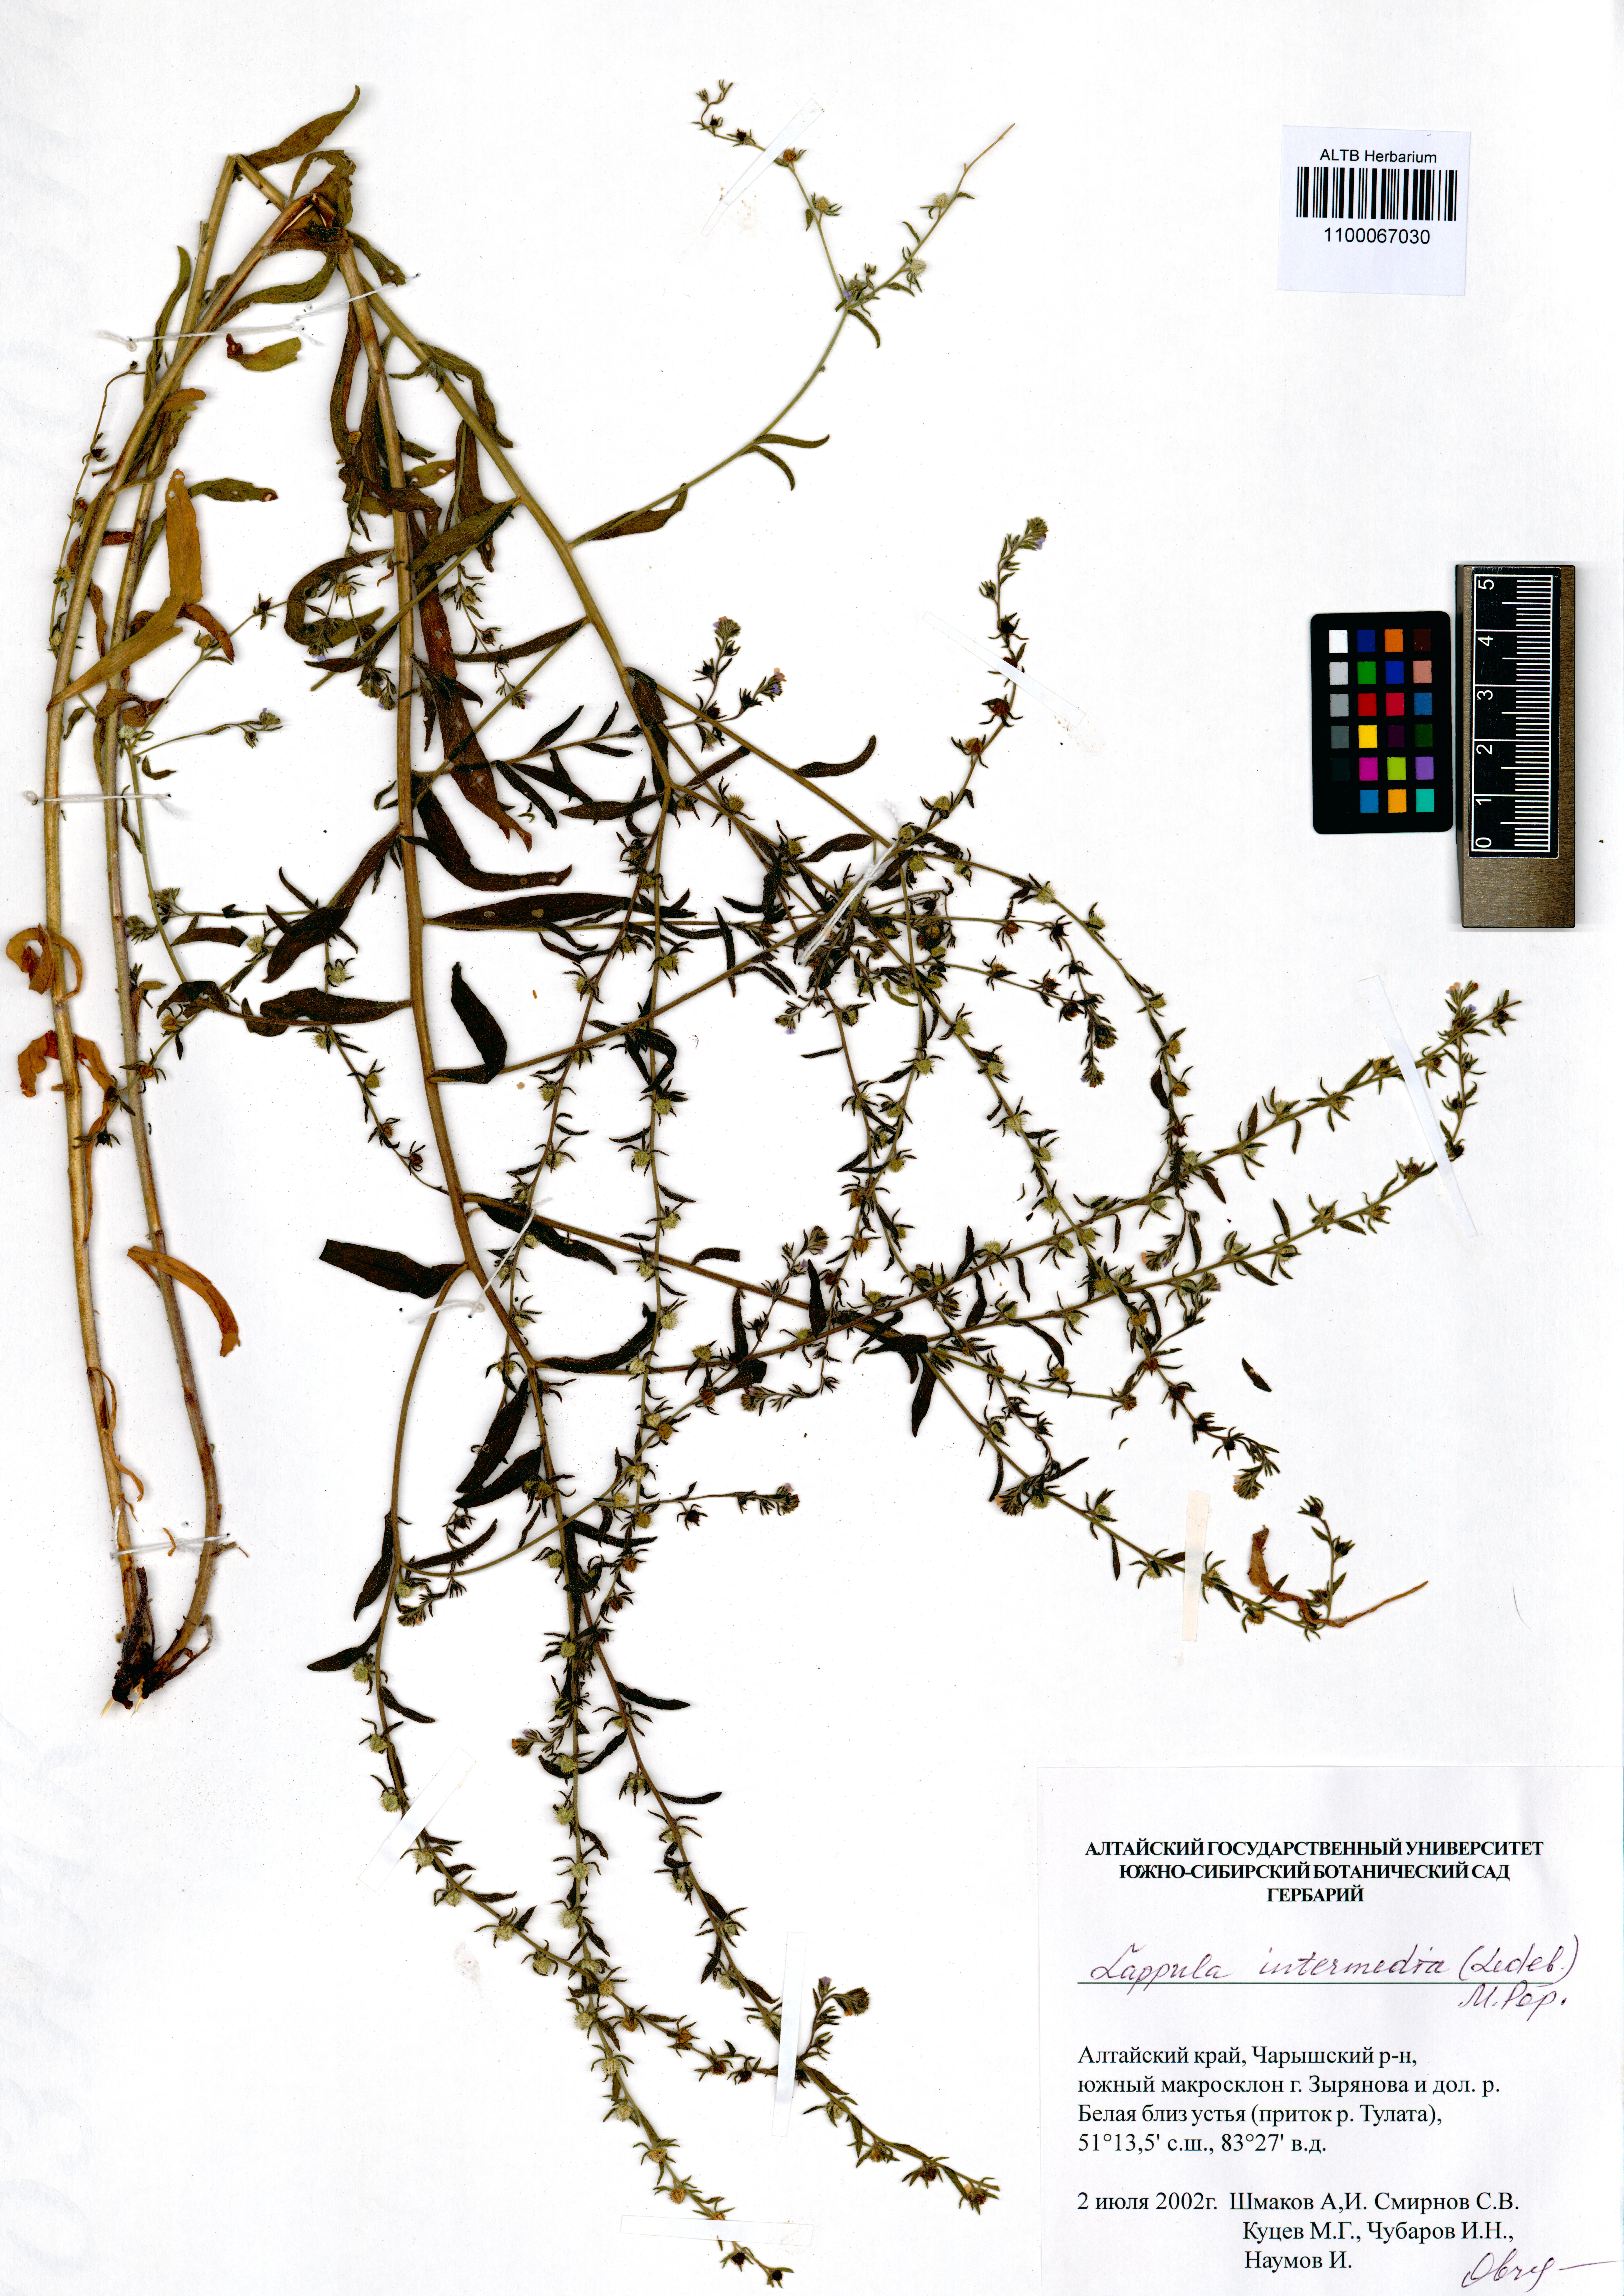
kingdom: Plantae
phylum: Tracheophyta
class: Magnoliopsida
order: Boraginales
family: Boraginaceae
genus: Lappula
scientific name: Lappula intermedia
